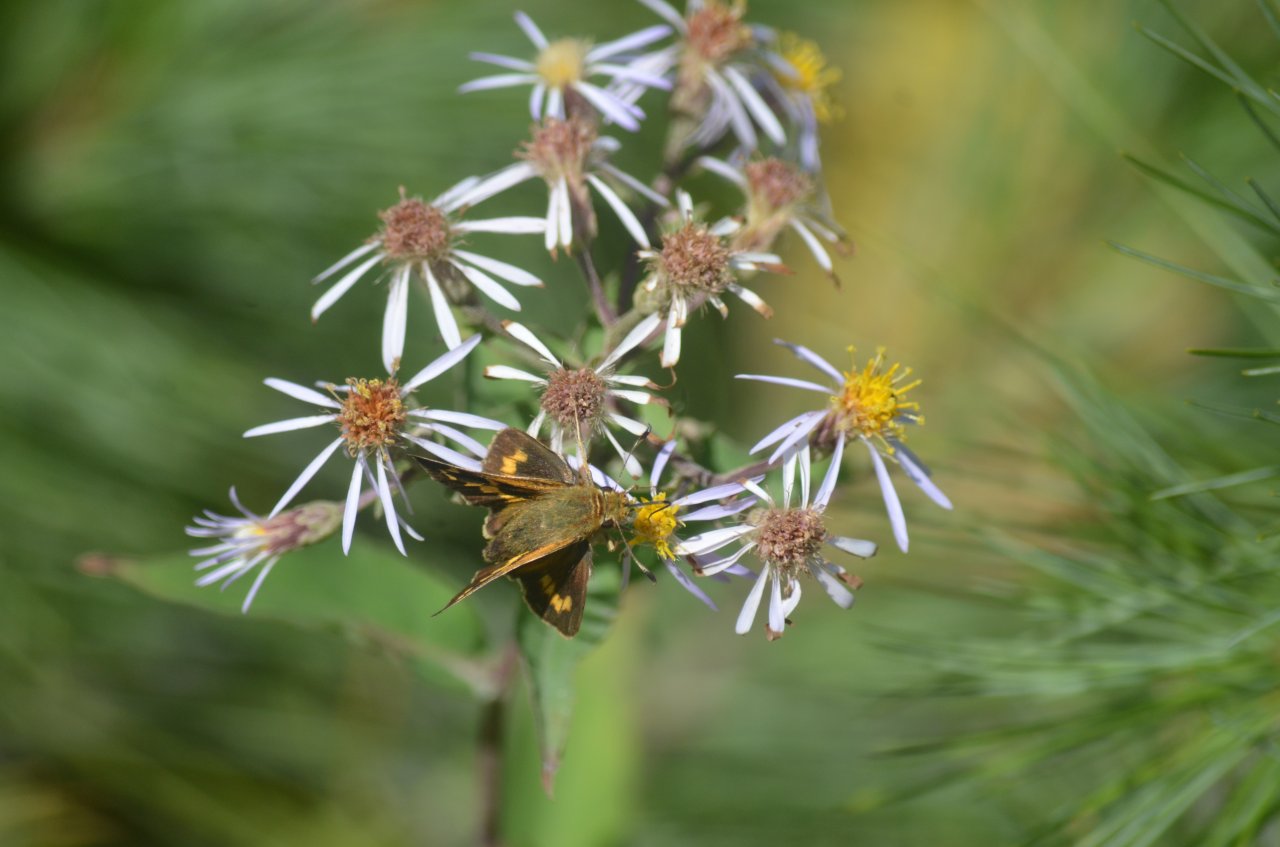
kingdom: Animalia
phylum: Arthropoda
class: Insecta
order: Lepidoptera
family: Hesperiidae
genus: Hesperia
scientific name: Hesperia leonardus
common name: Leonard's Skipper
